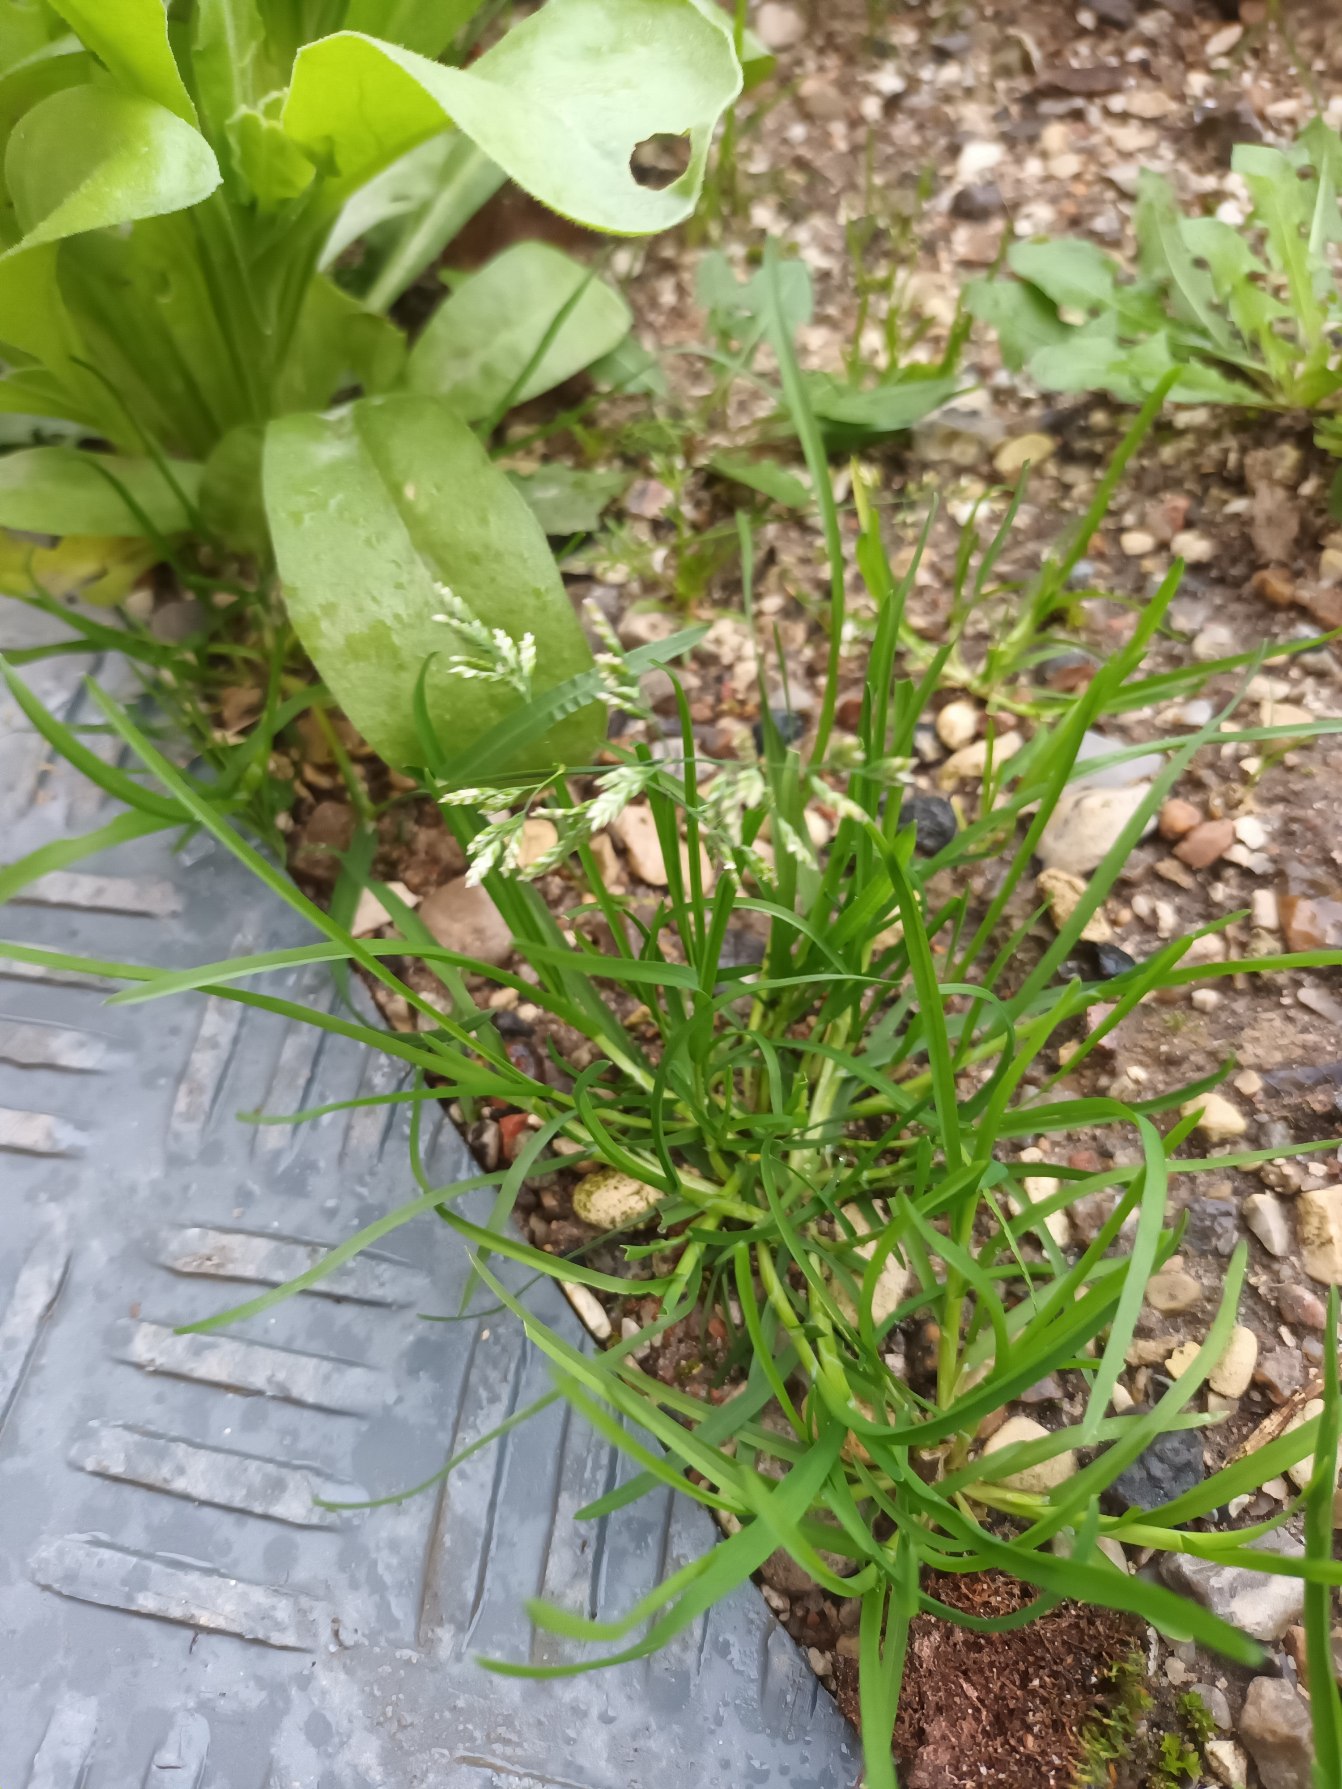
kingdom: Plantae
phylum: Tracheophyta
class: Liliopsida
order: Poales
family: Poaceae
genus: Poa
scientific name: Poa annua
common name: Enårig rapgræs
